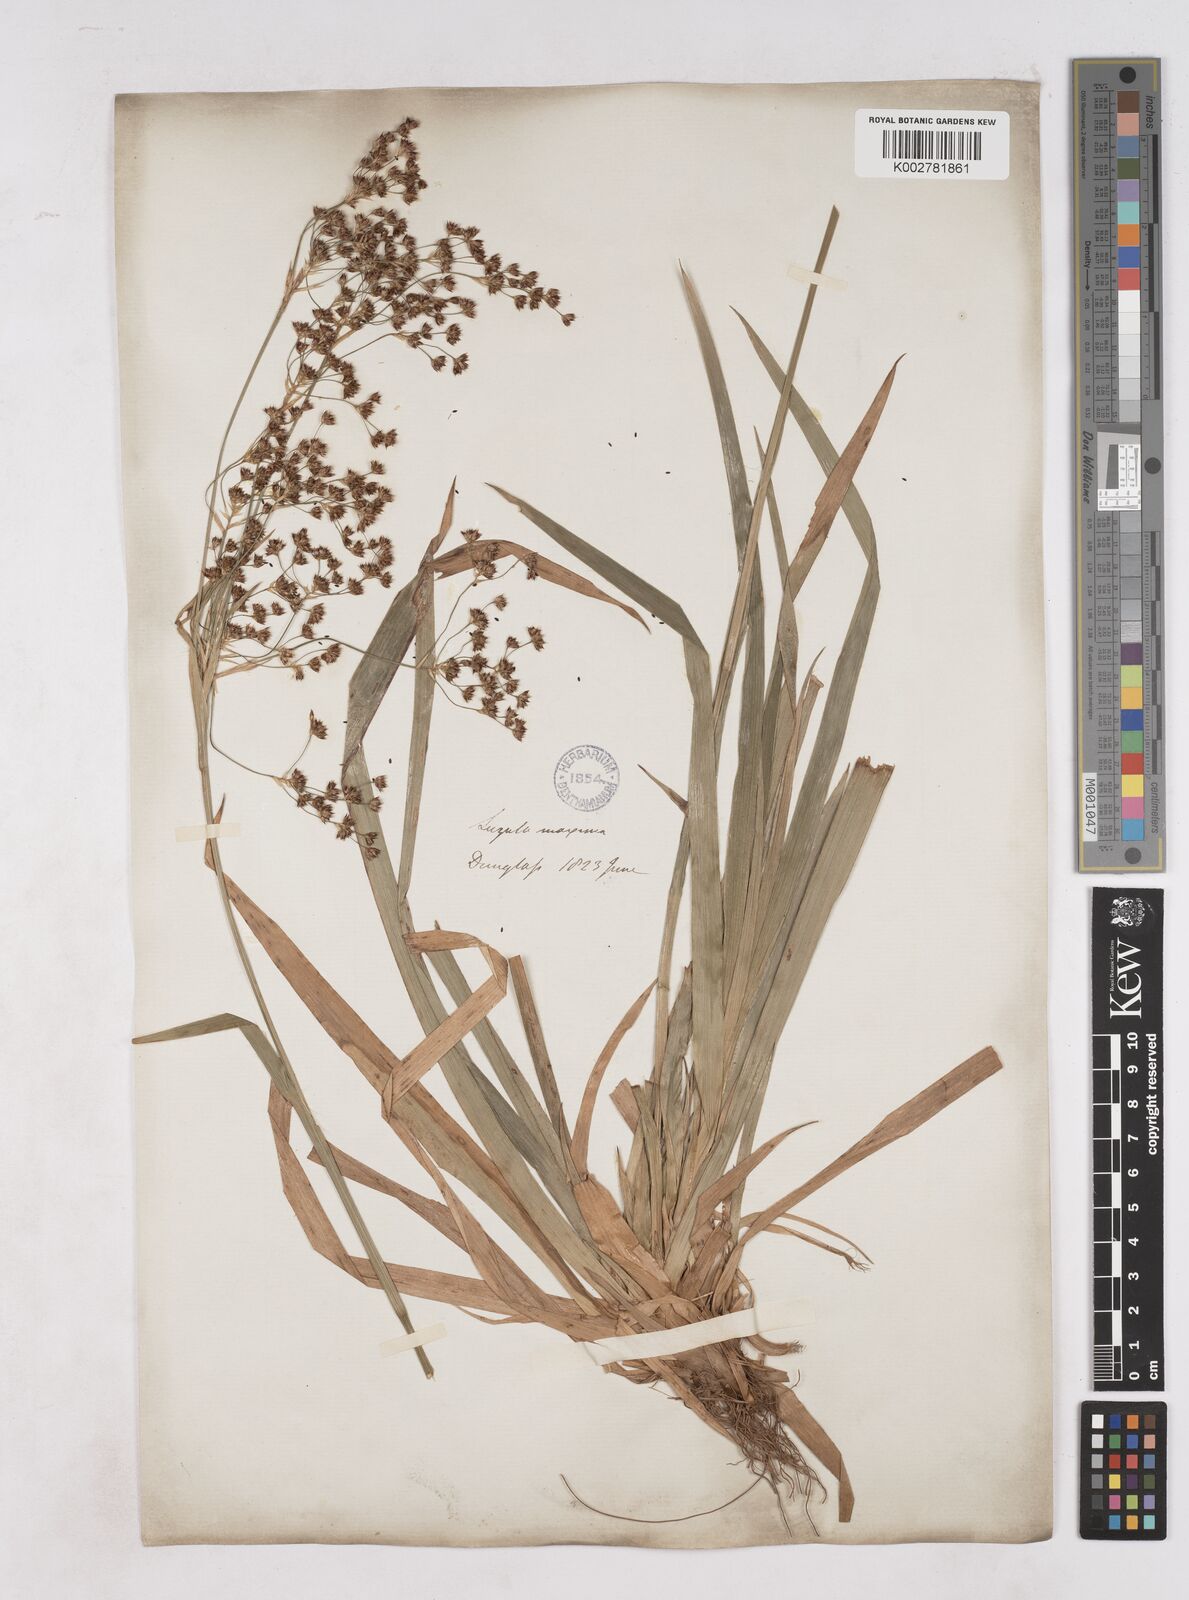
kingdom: Plantae
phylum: Tracheophyta
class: Liliopsida
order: Poales
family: Juncaceae
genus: Luzula
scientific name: Luzula sylvatica
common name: Great wood-rush
